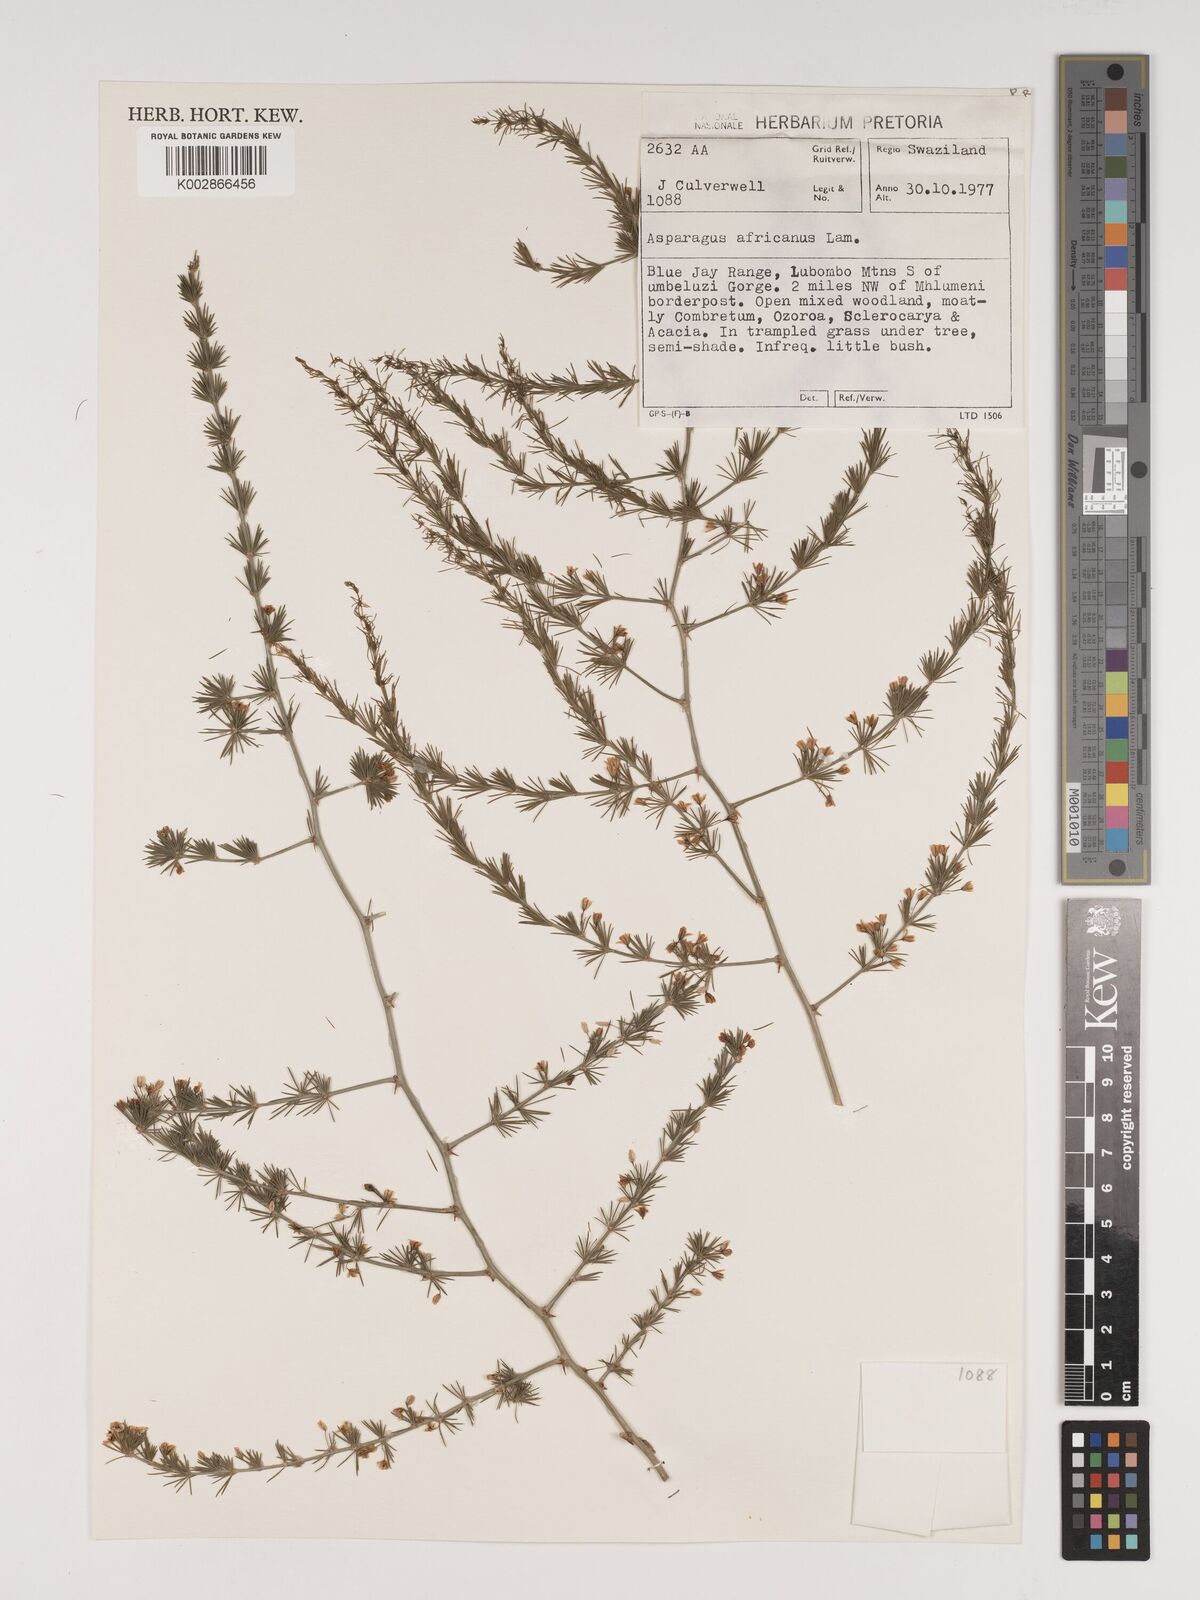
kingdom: Plantae
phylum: Tracheophyta
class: Liliopsida
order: Asparagales
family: Asparagaceae
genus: Asparagus
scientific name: Asparagus africanus
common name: Asparagus-fern
